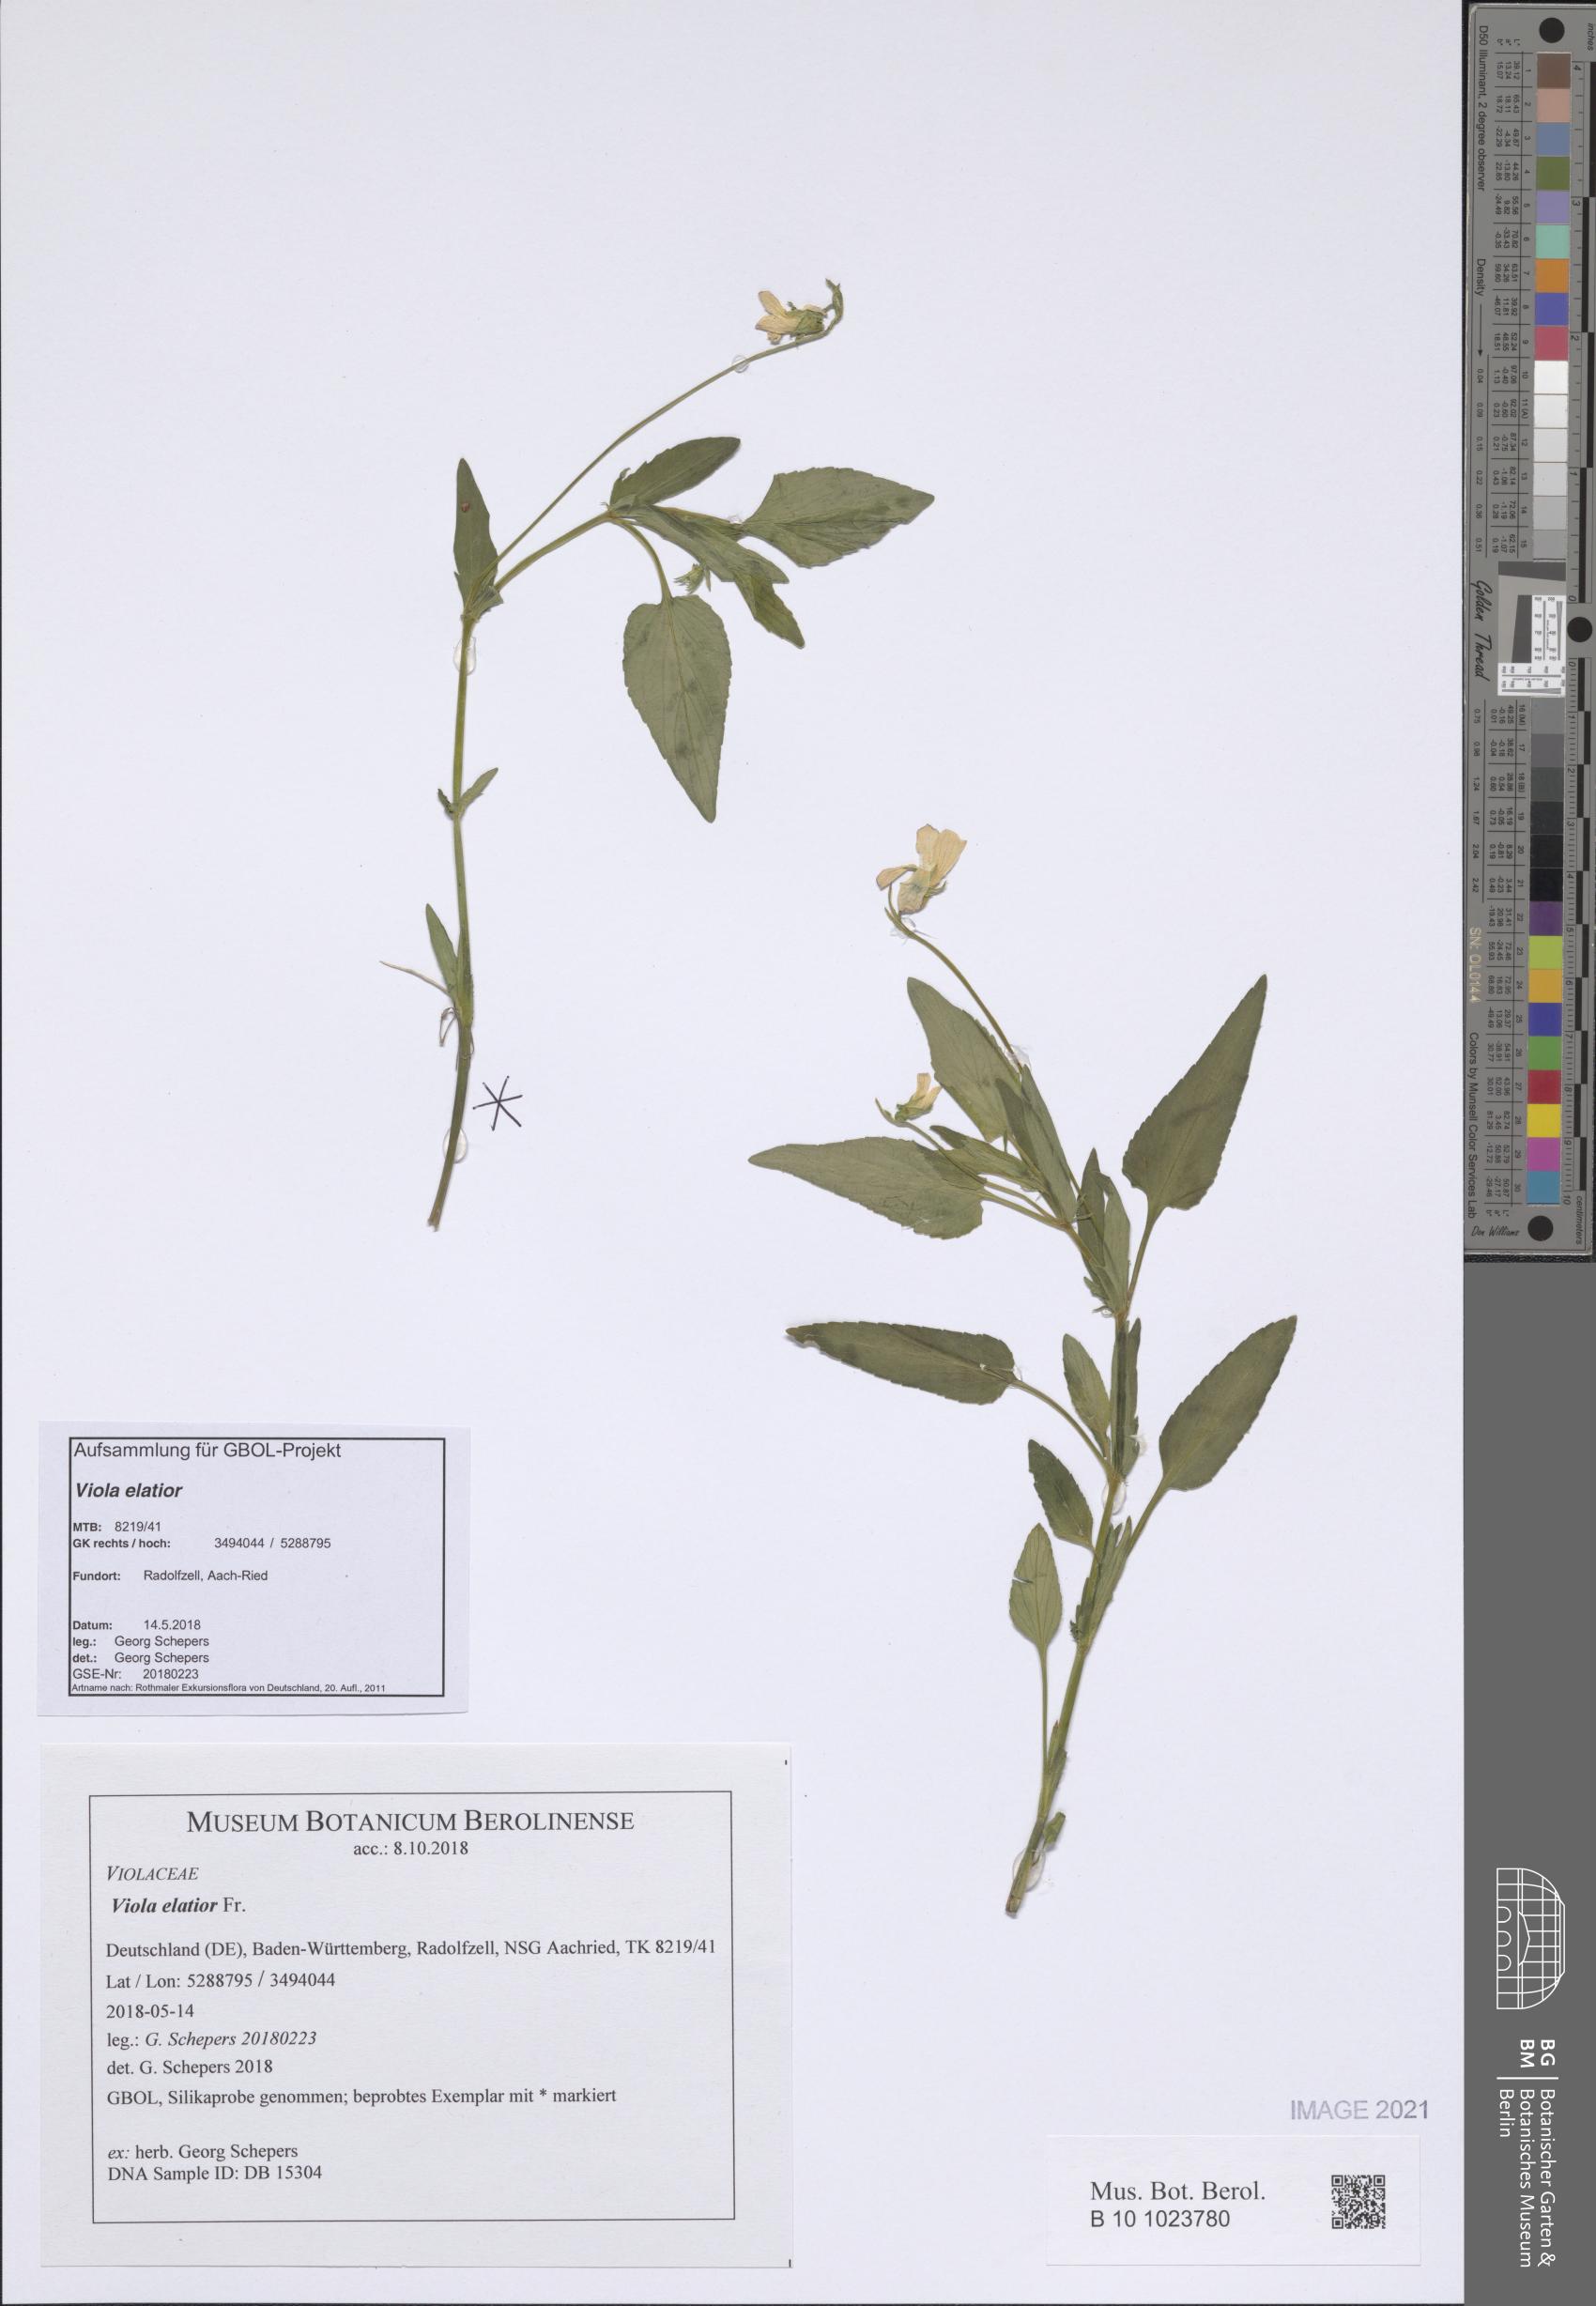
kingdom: Plantae
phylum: Tracheophyta
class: Magnoliopsida
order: Malpighiales
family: Violaceae
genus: Viola
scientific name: Viola elatior
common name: Tall violet
